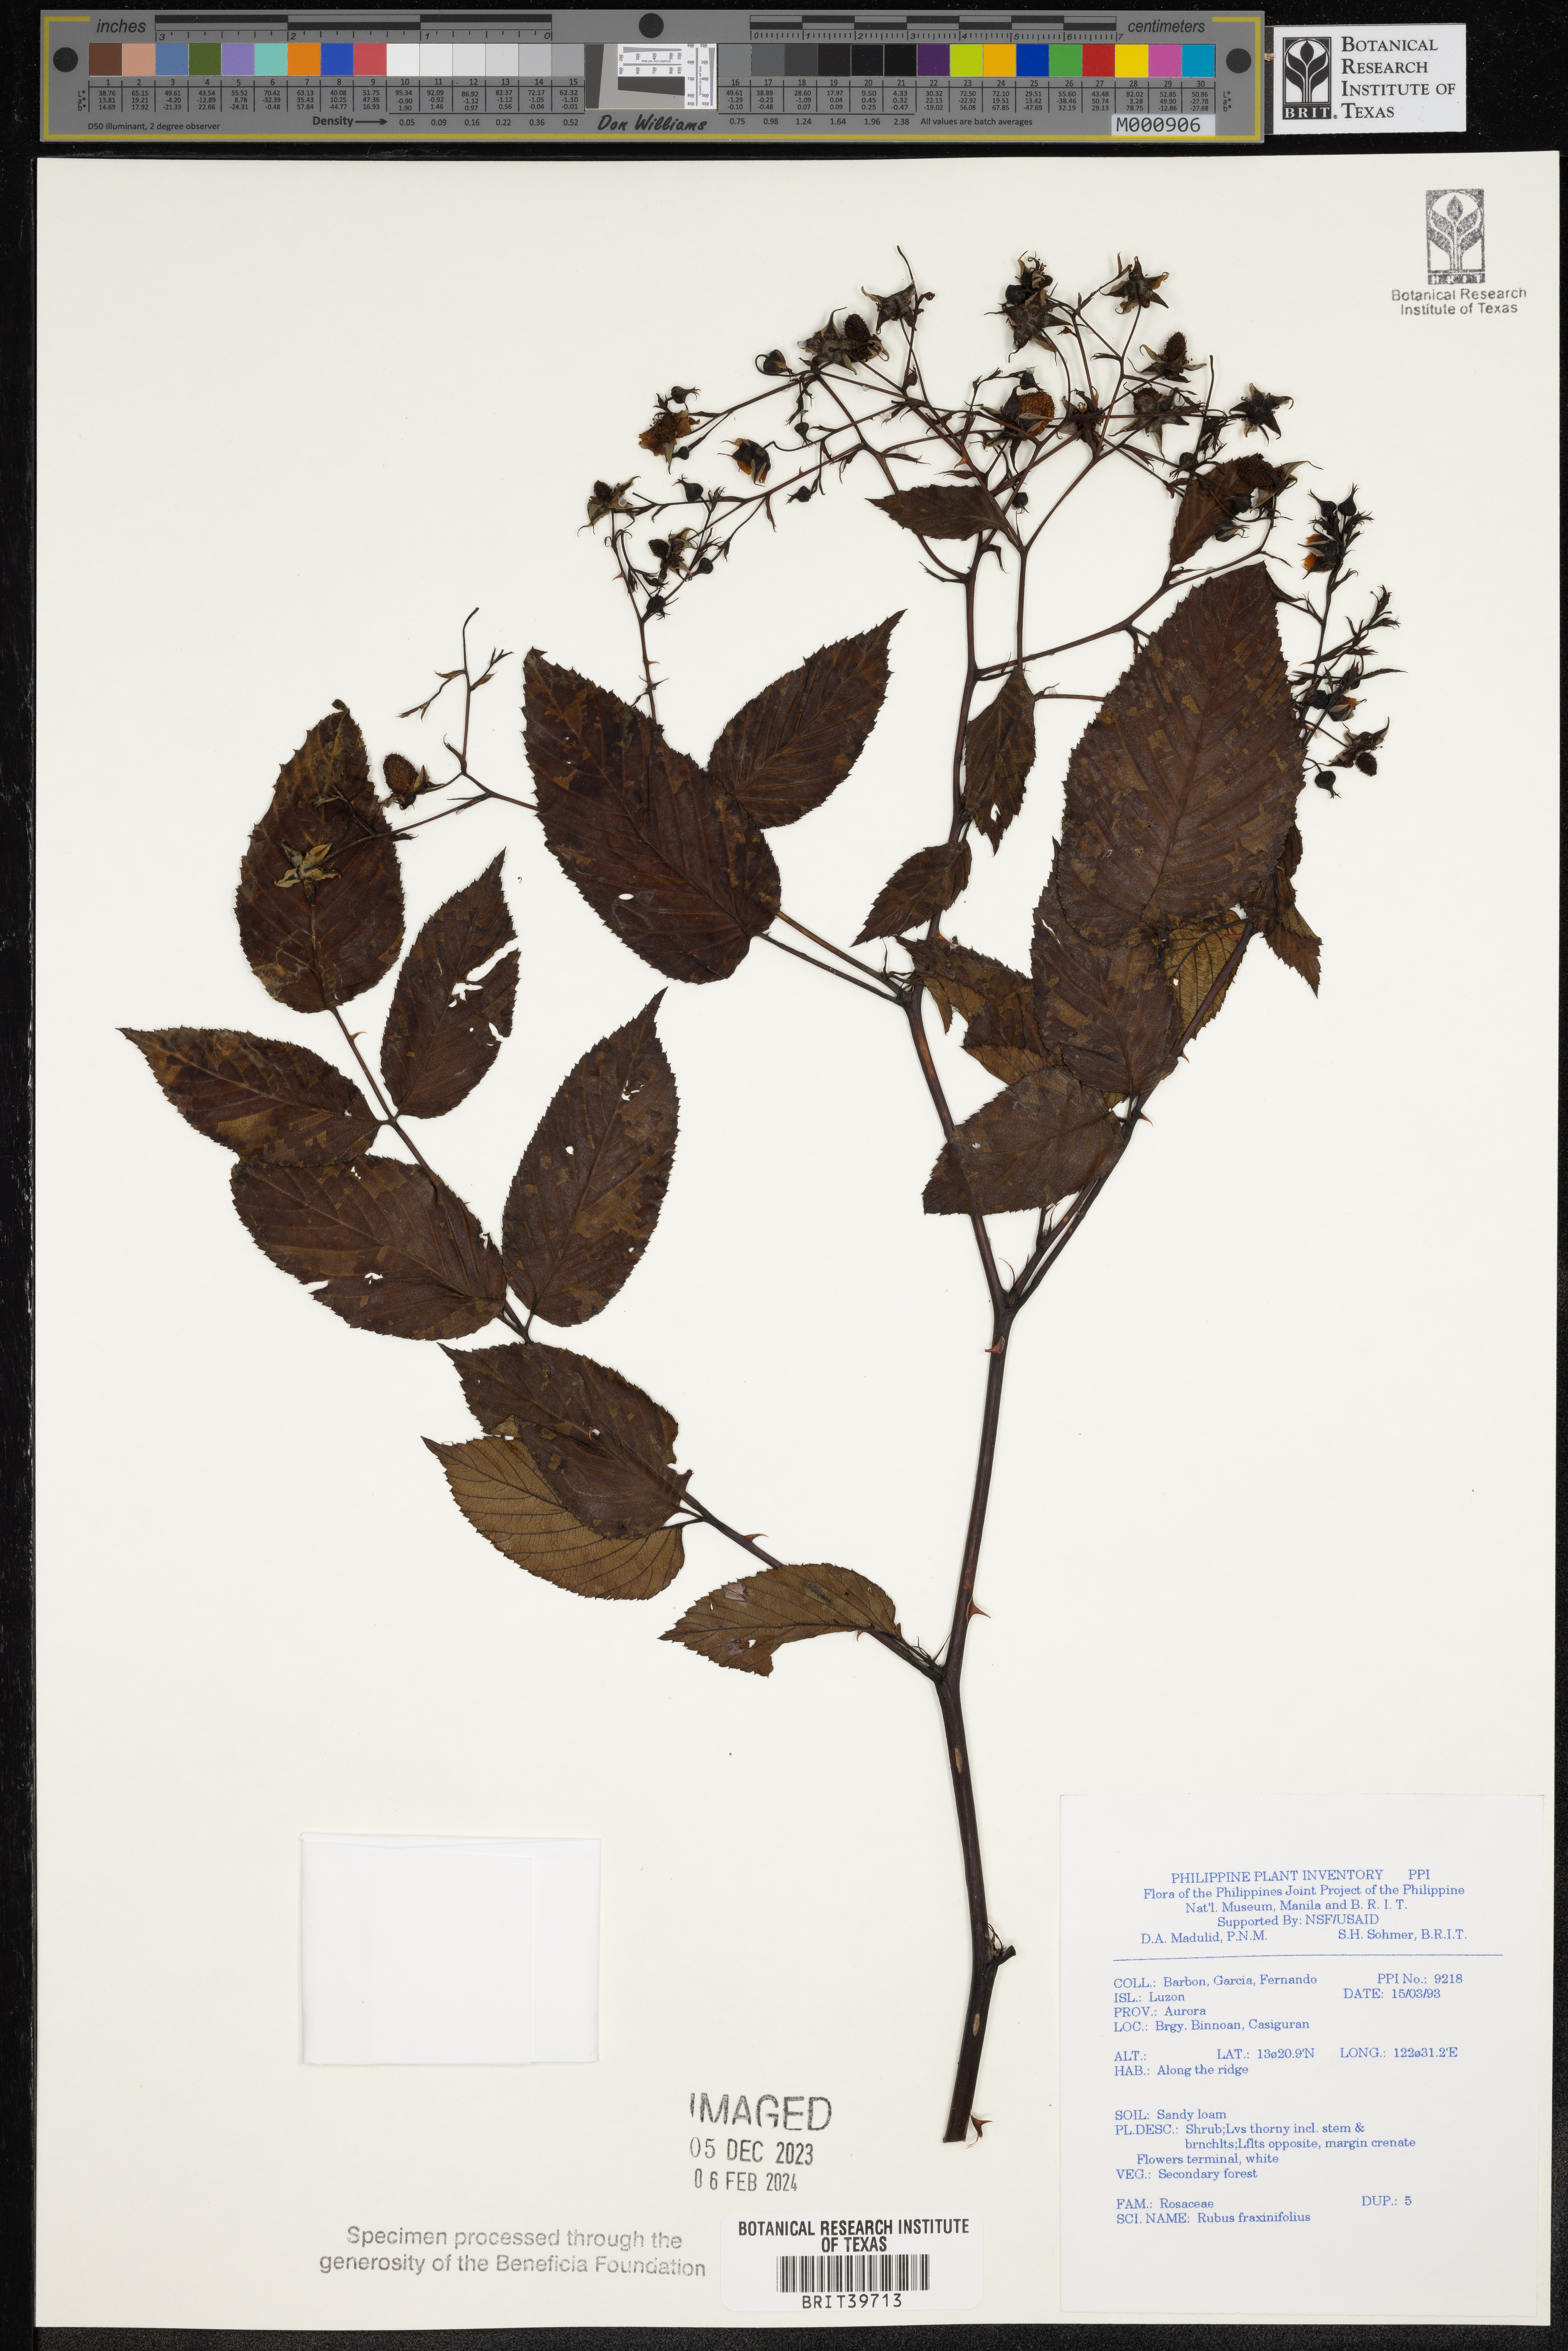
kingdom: Plantae
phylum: Tracheophyta
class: Magnoliopsida
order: Rosales
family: Rosaceae
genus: Rubus
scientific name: Rubus fraxinifolius
